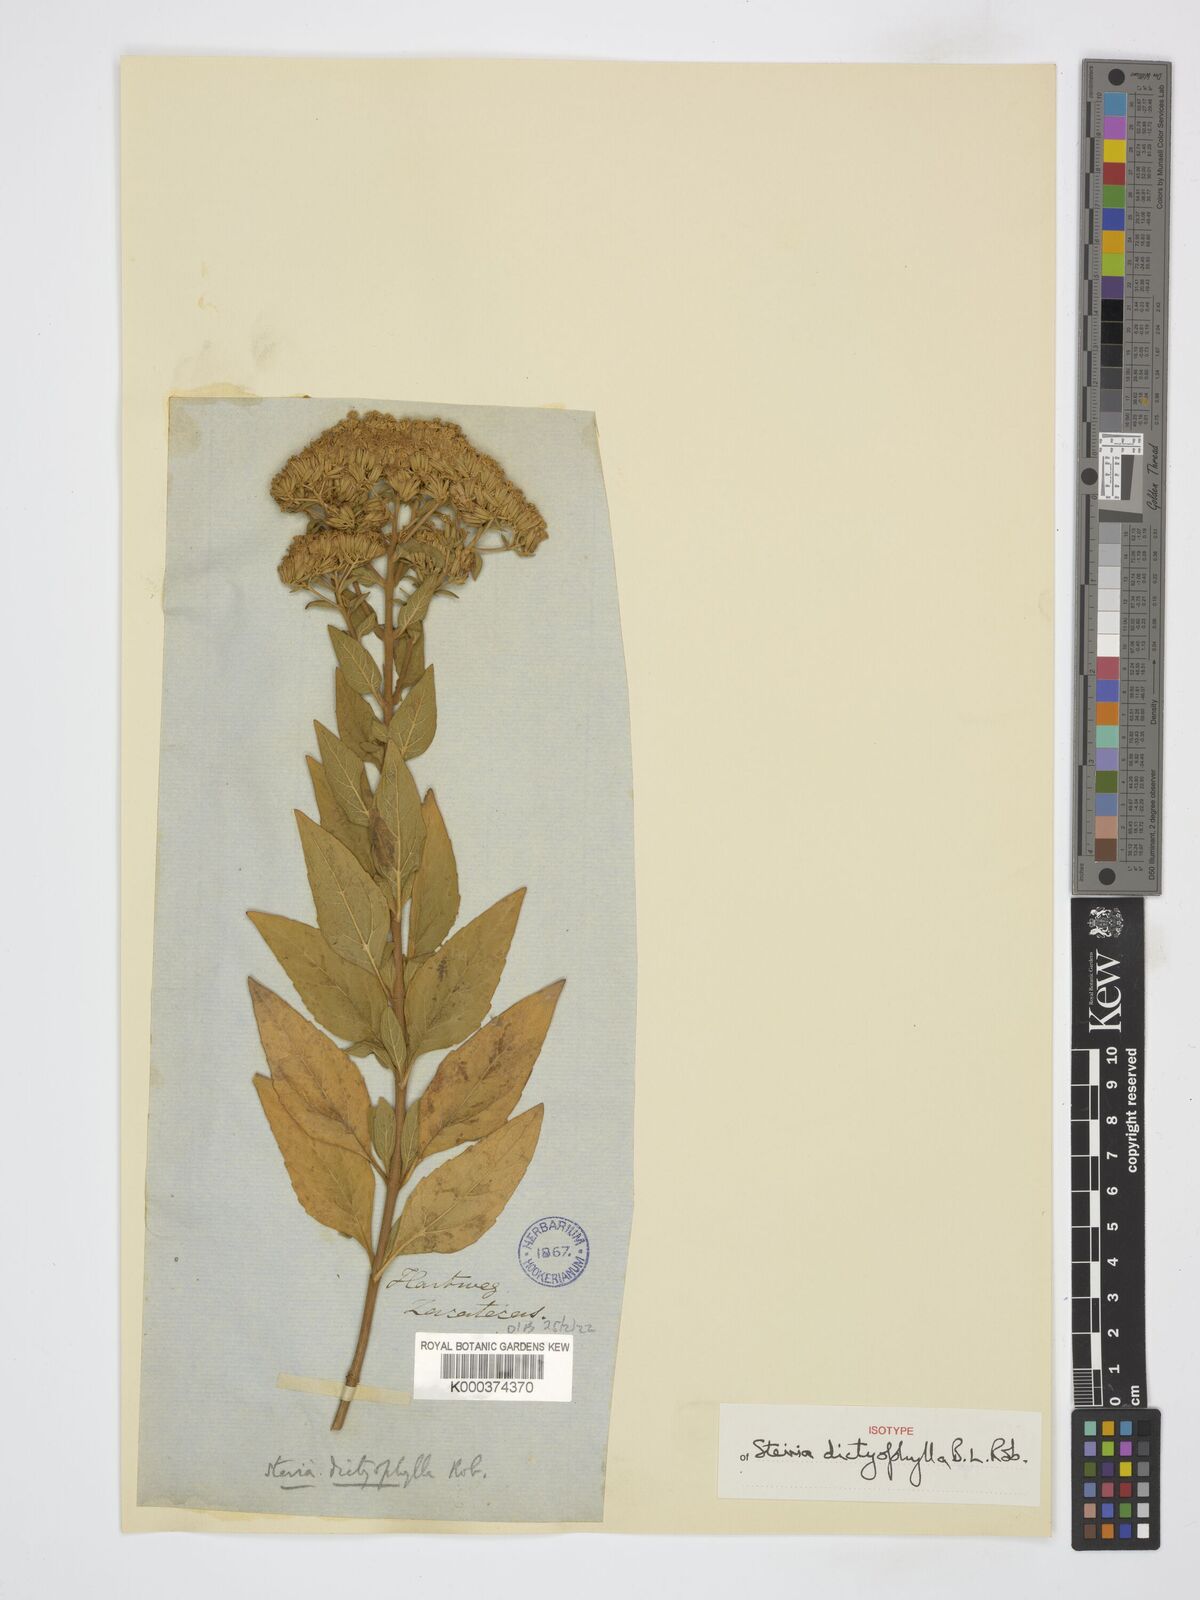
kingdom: Plantae
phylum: Tracheophyta
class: Magnoliopsida
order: Asterales
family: Asteraceae
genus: Stevia
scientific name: Stevia dictyophylla
